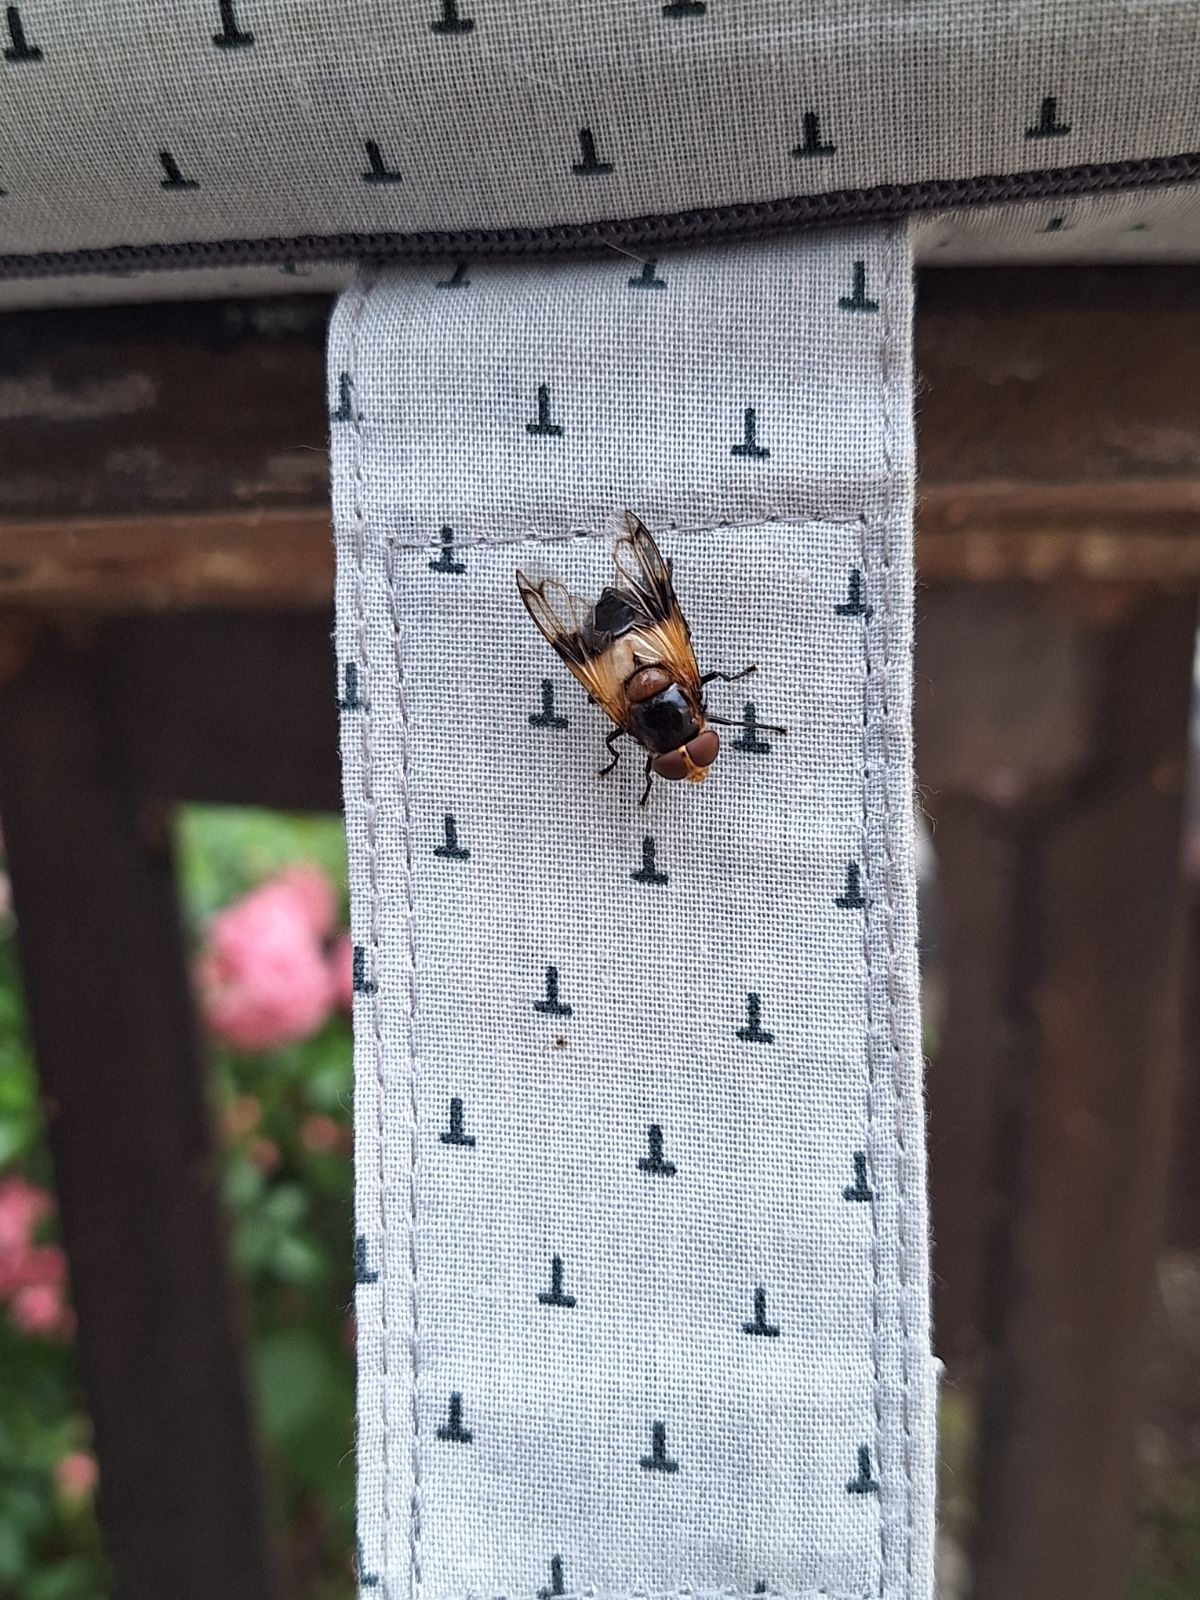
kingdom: Animalia
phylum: Arthropoda
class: Insecta
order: Diptera
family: Syrphidae
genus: Volucella
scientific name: Volucella pellucens
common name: Hvidbåndet humlesvirreflue
